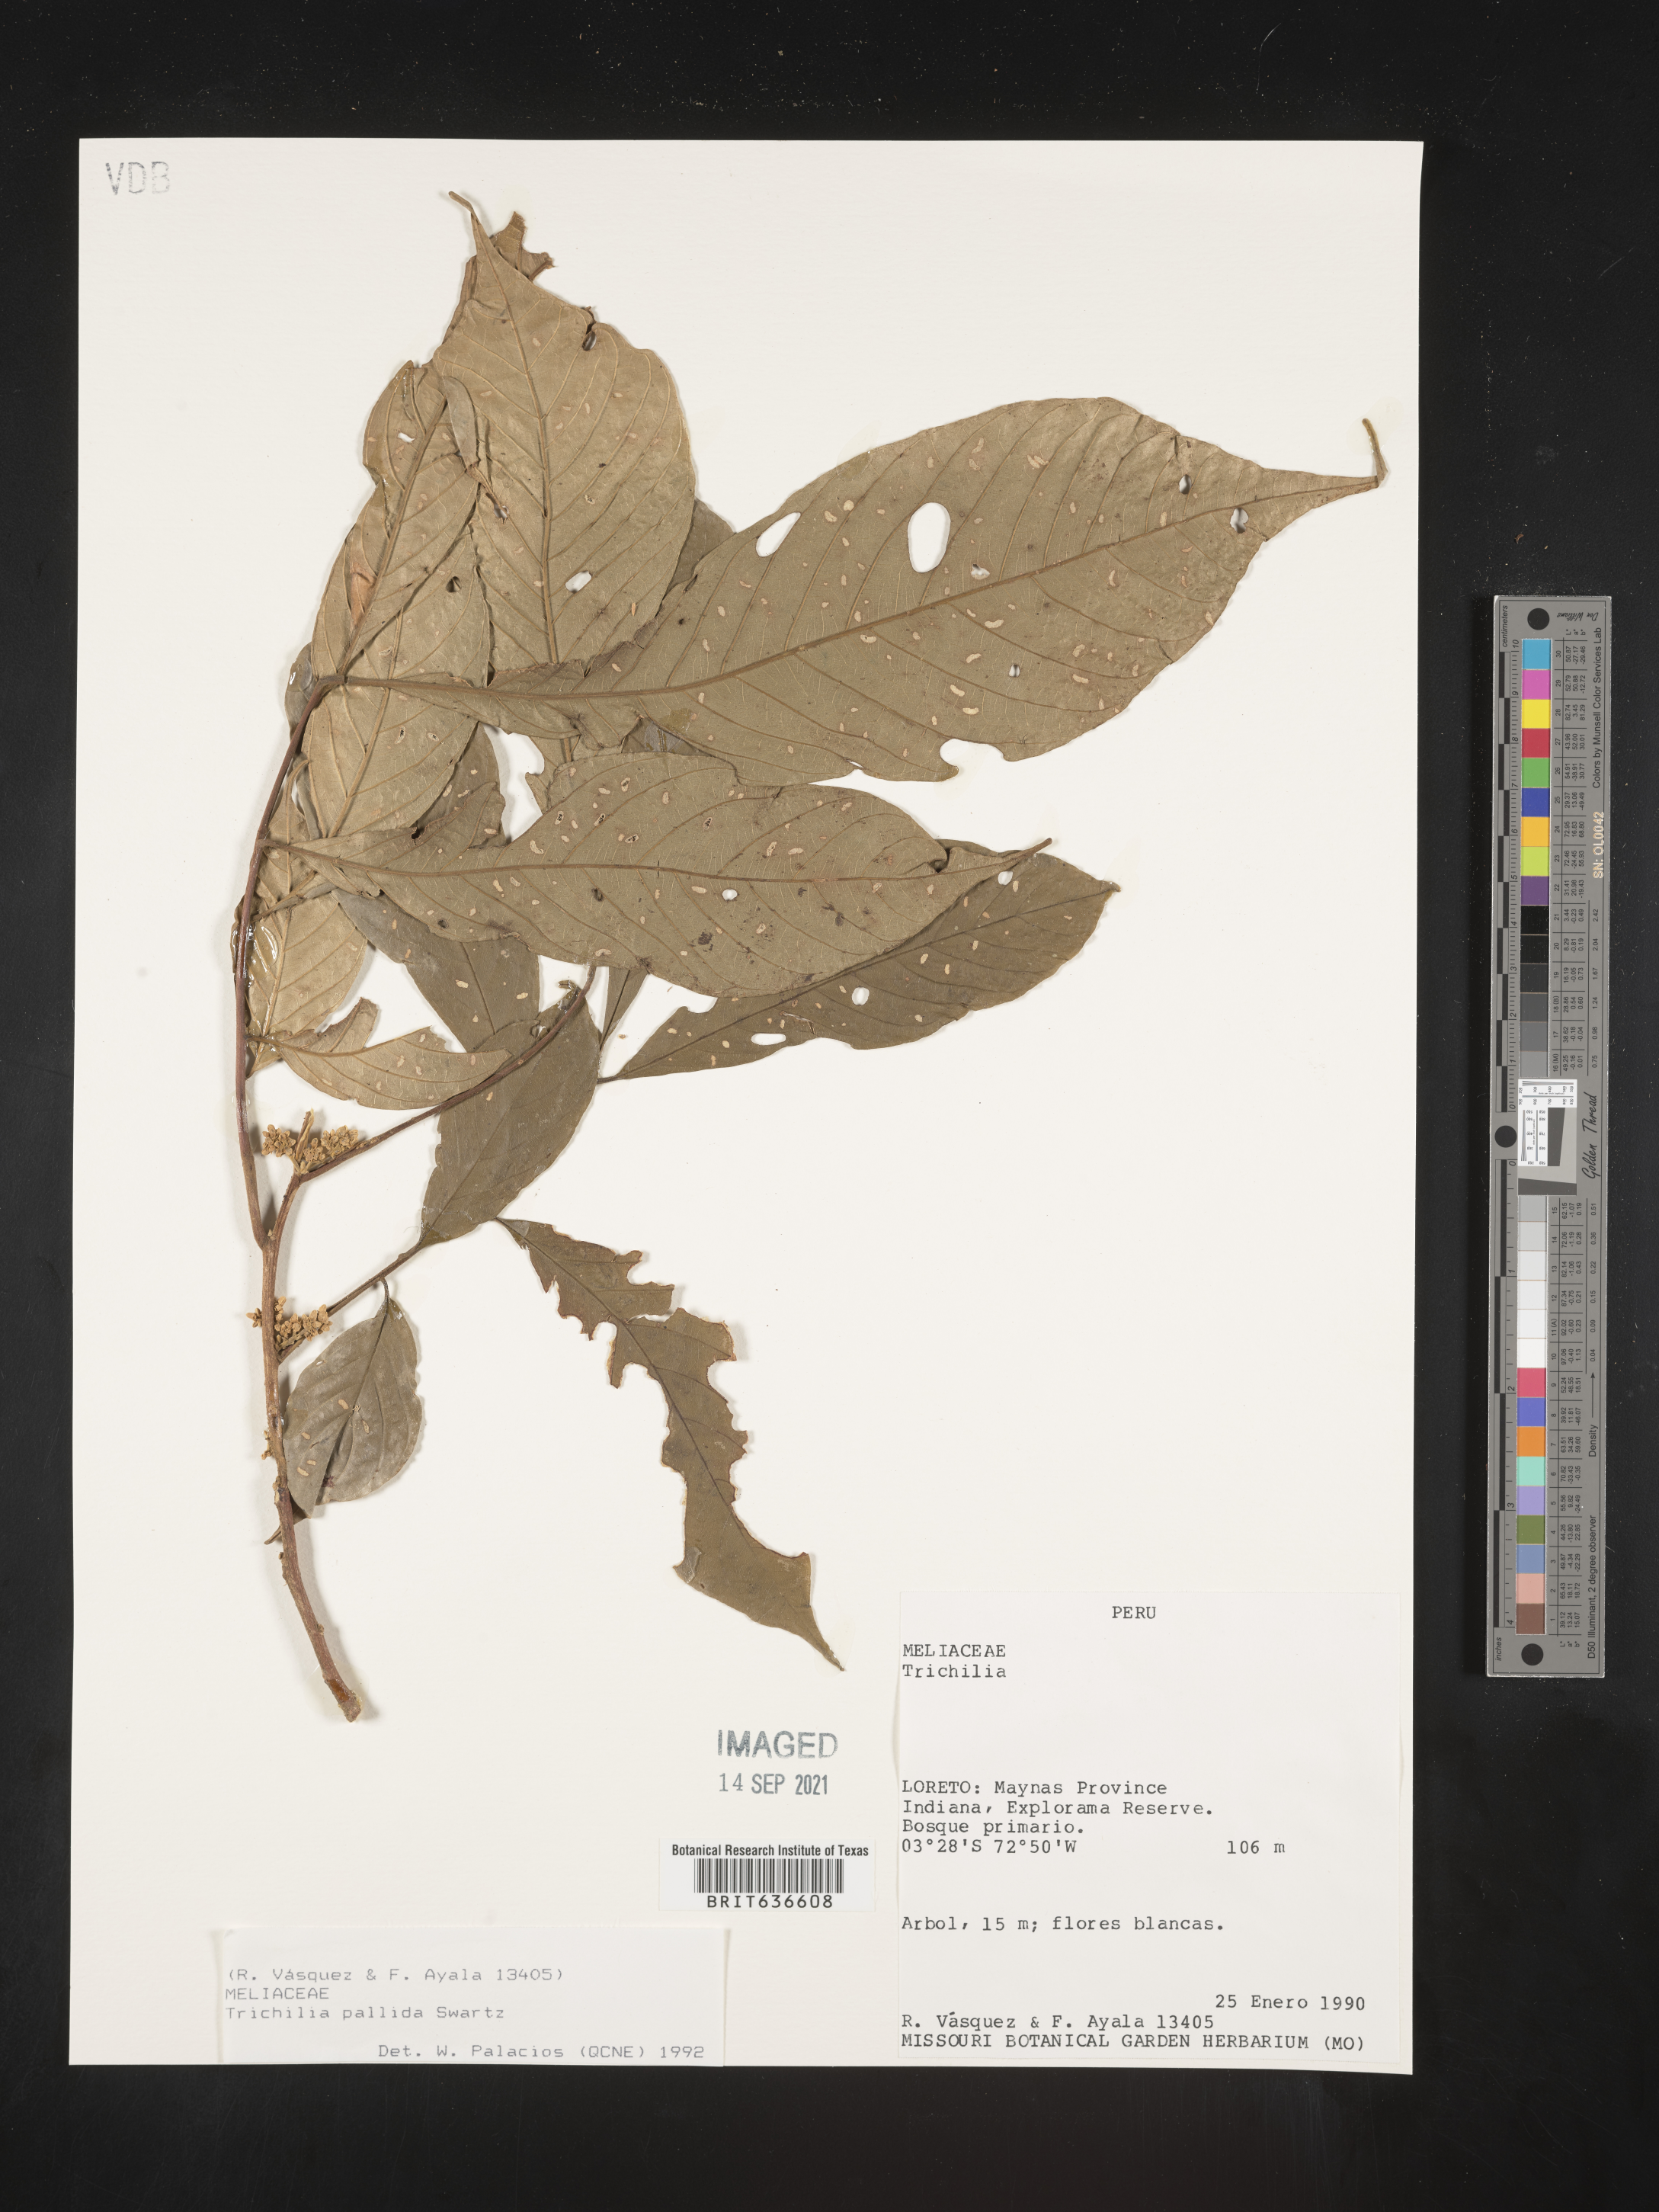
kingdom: Plantae
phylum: Tracheophyta
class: Magnoliopsida
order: Sapindales
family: Meliaceae
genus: Trichilia
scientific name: Trichilia
